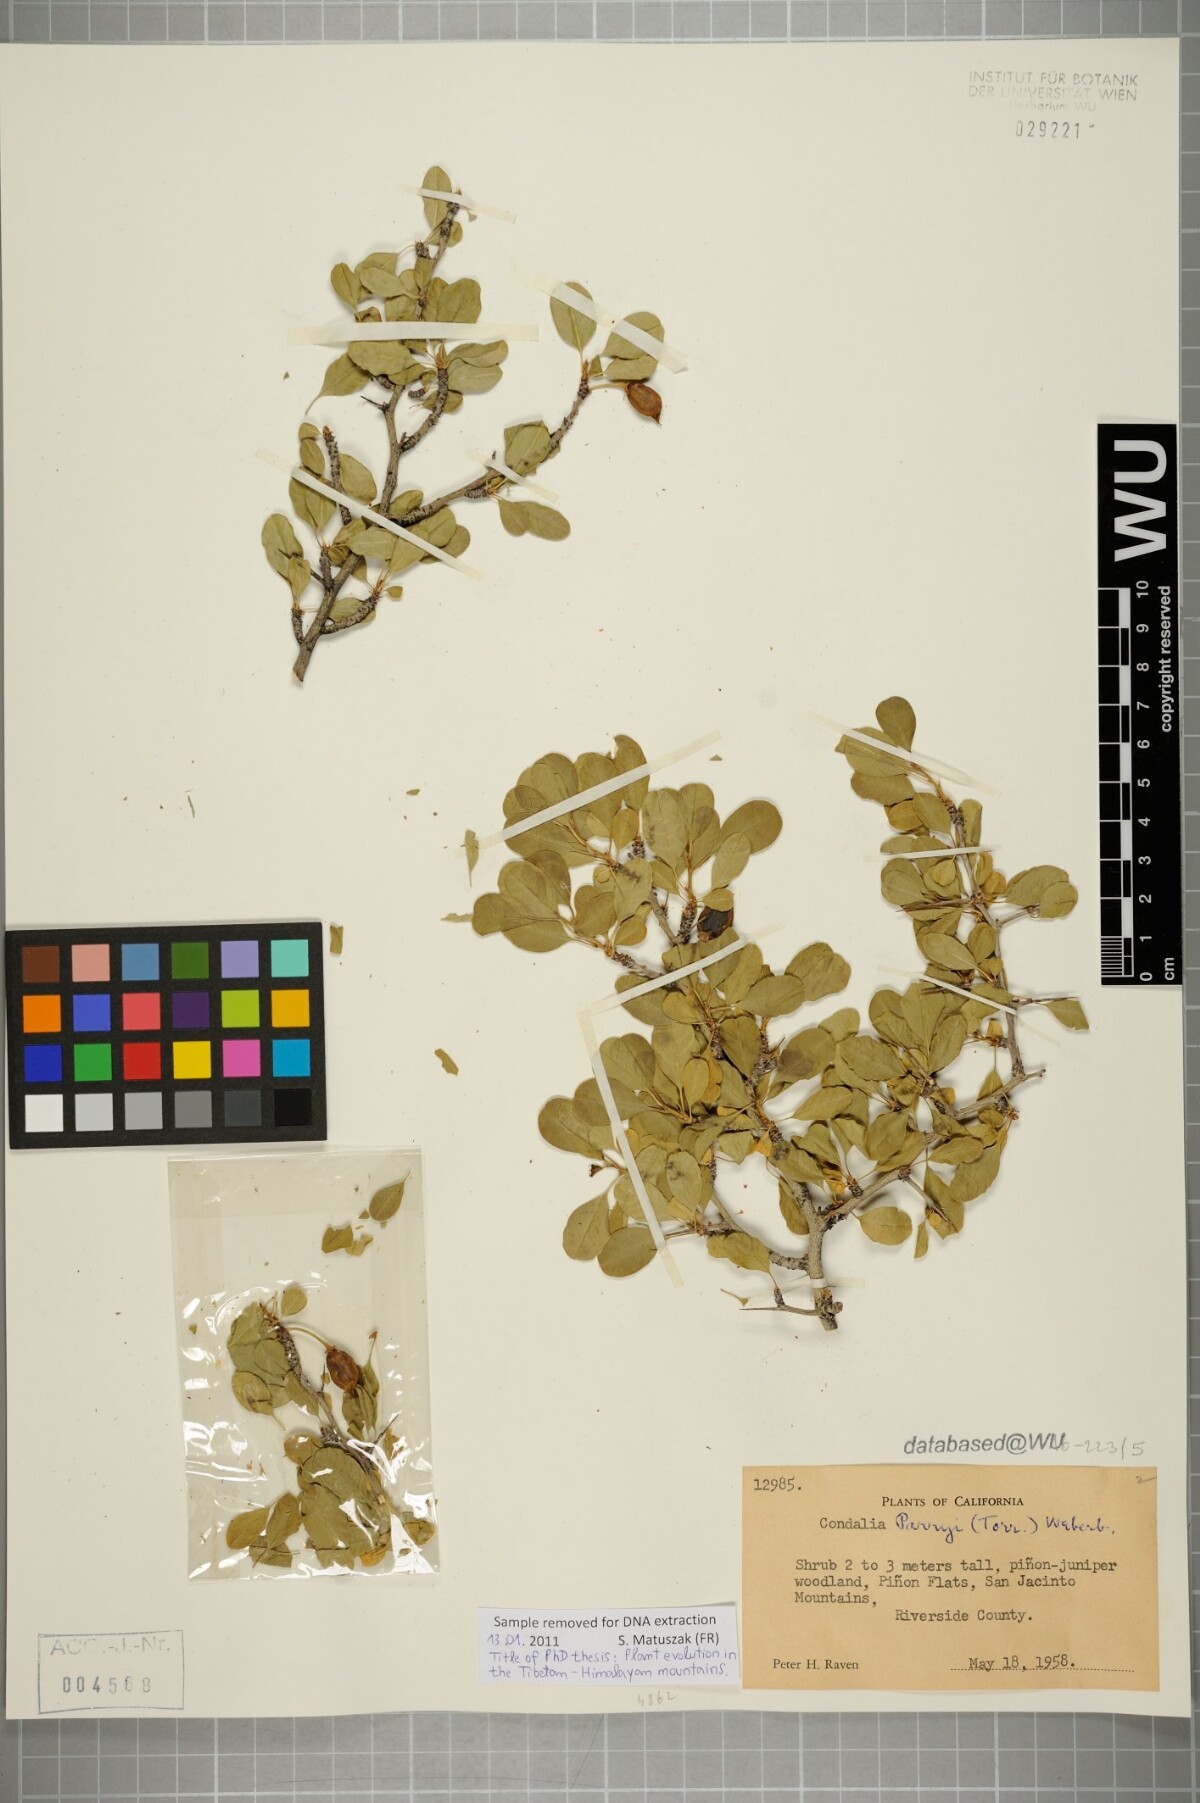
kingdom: Plantae
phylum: Tracheophyta
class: Magnoliopsida
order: Rosales
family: Rhamnaceae
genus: Pseudoziziphus
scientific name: Pseudoziziphus parryi
